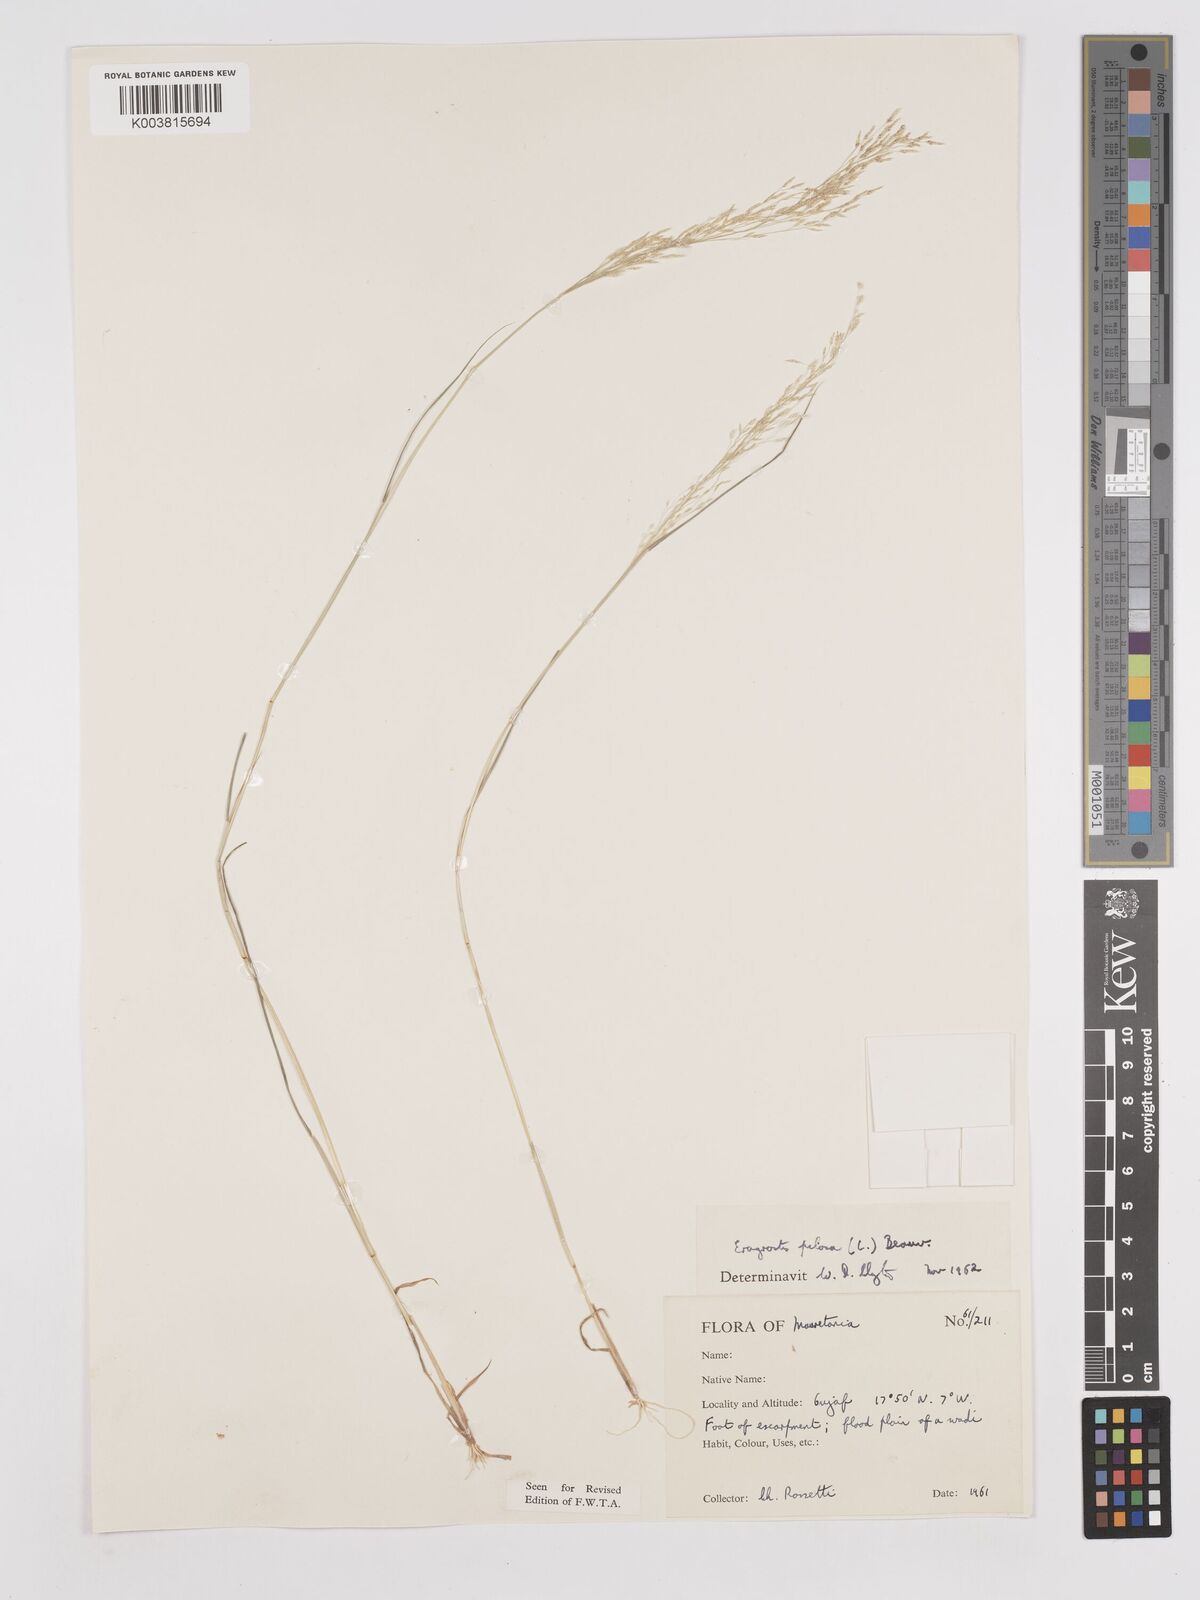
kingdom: Plantae
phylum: Tracheophyta
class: Liliopsida
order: Poales
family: Poaceae
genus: Eragrostis
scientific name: Eragrostis pilosa
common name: Indian lovegrass
